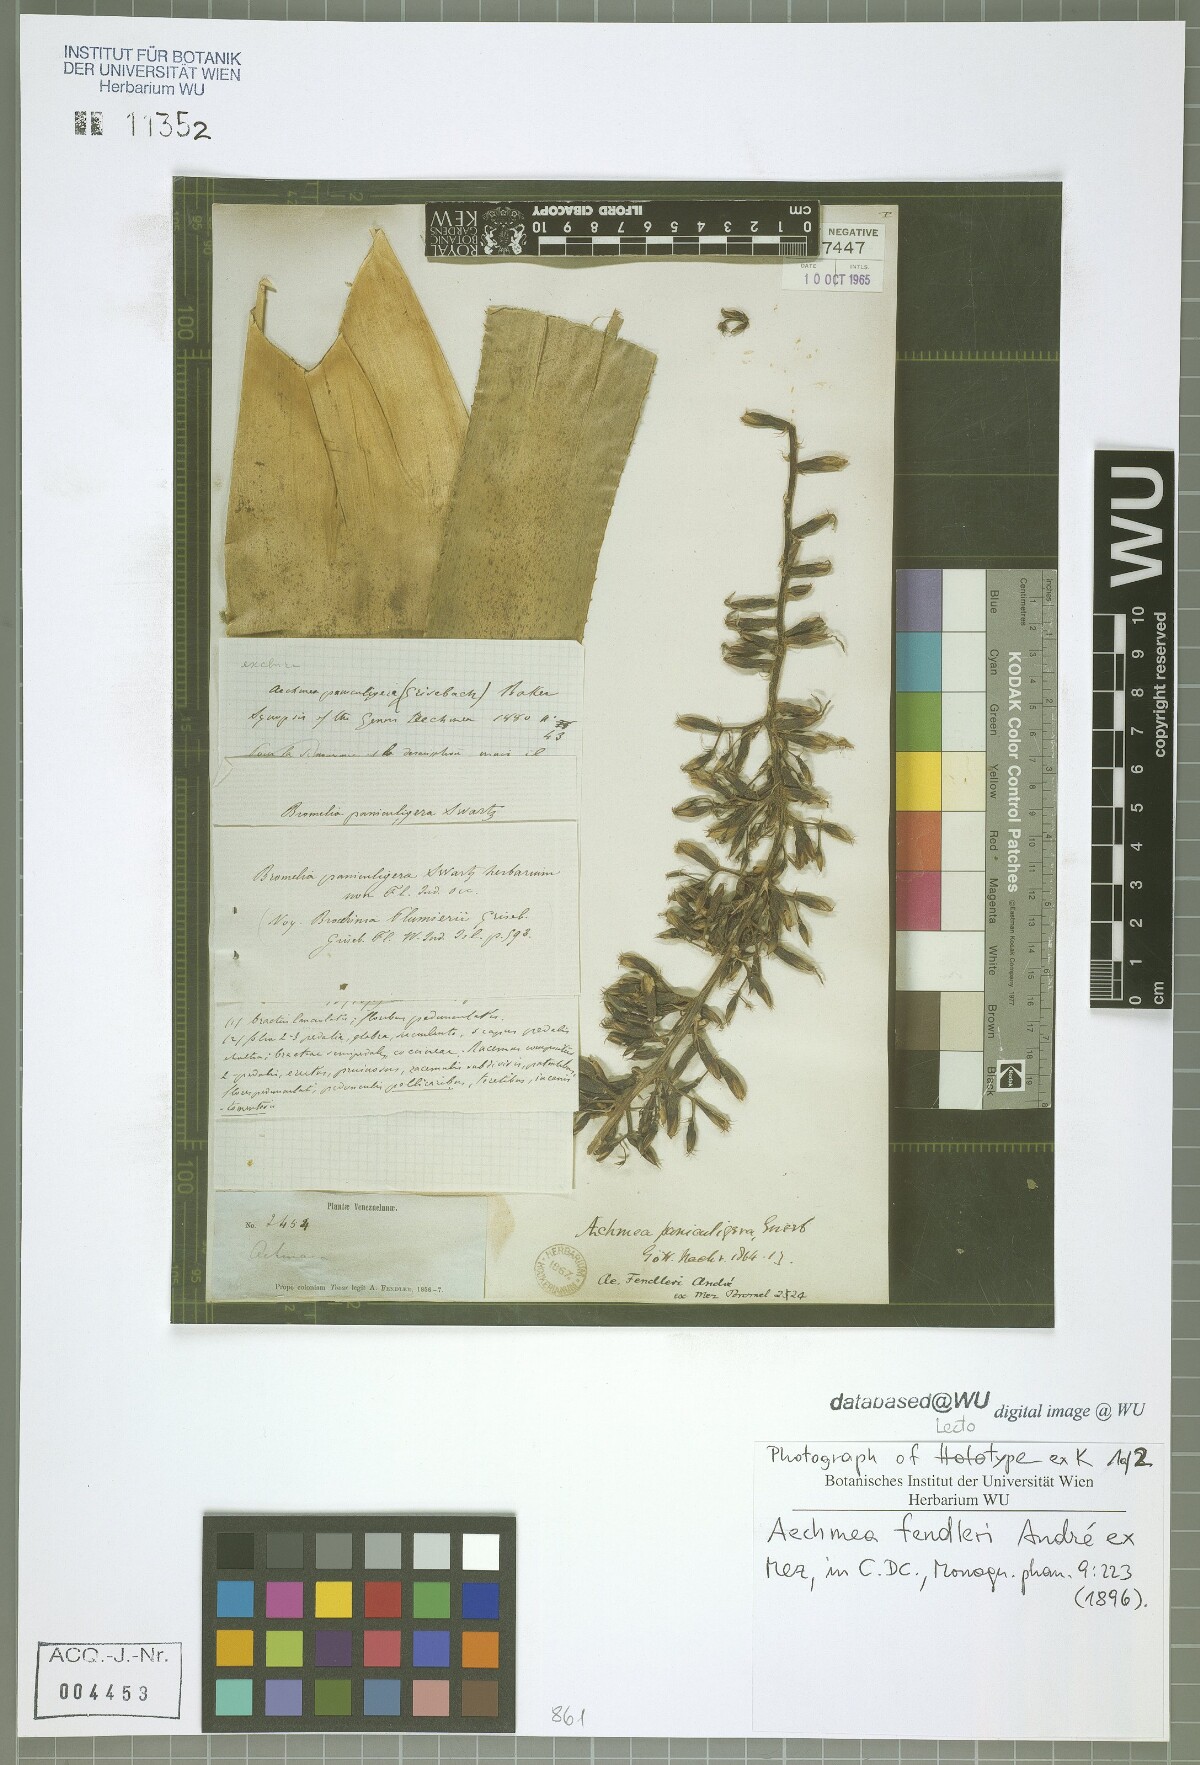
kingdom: Plantae
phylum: Tracheophyta
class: Liliopsida
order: Poales
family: Bromeliaceae
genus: Aechmea
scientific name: Aechmea fendleri
